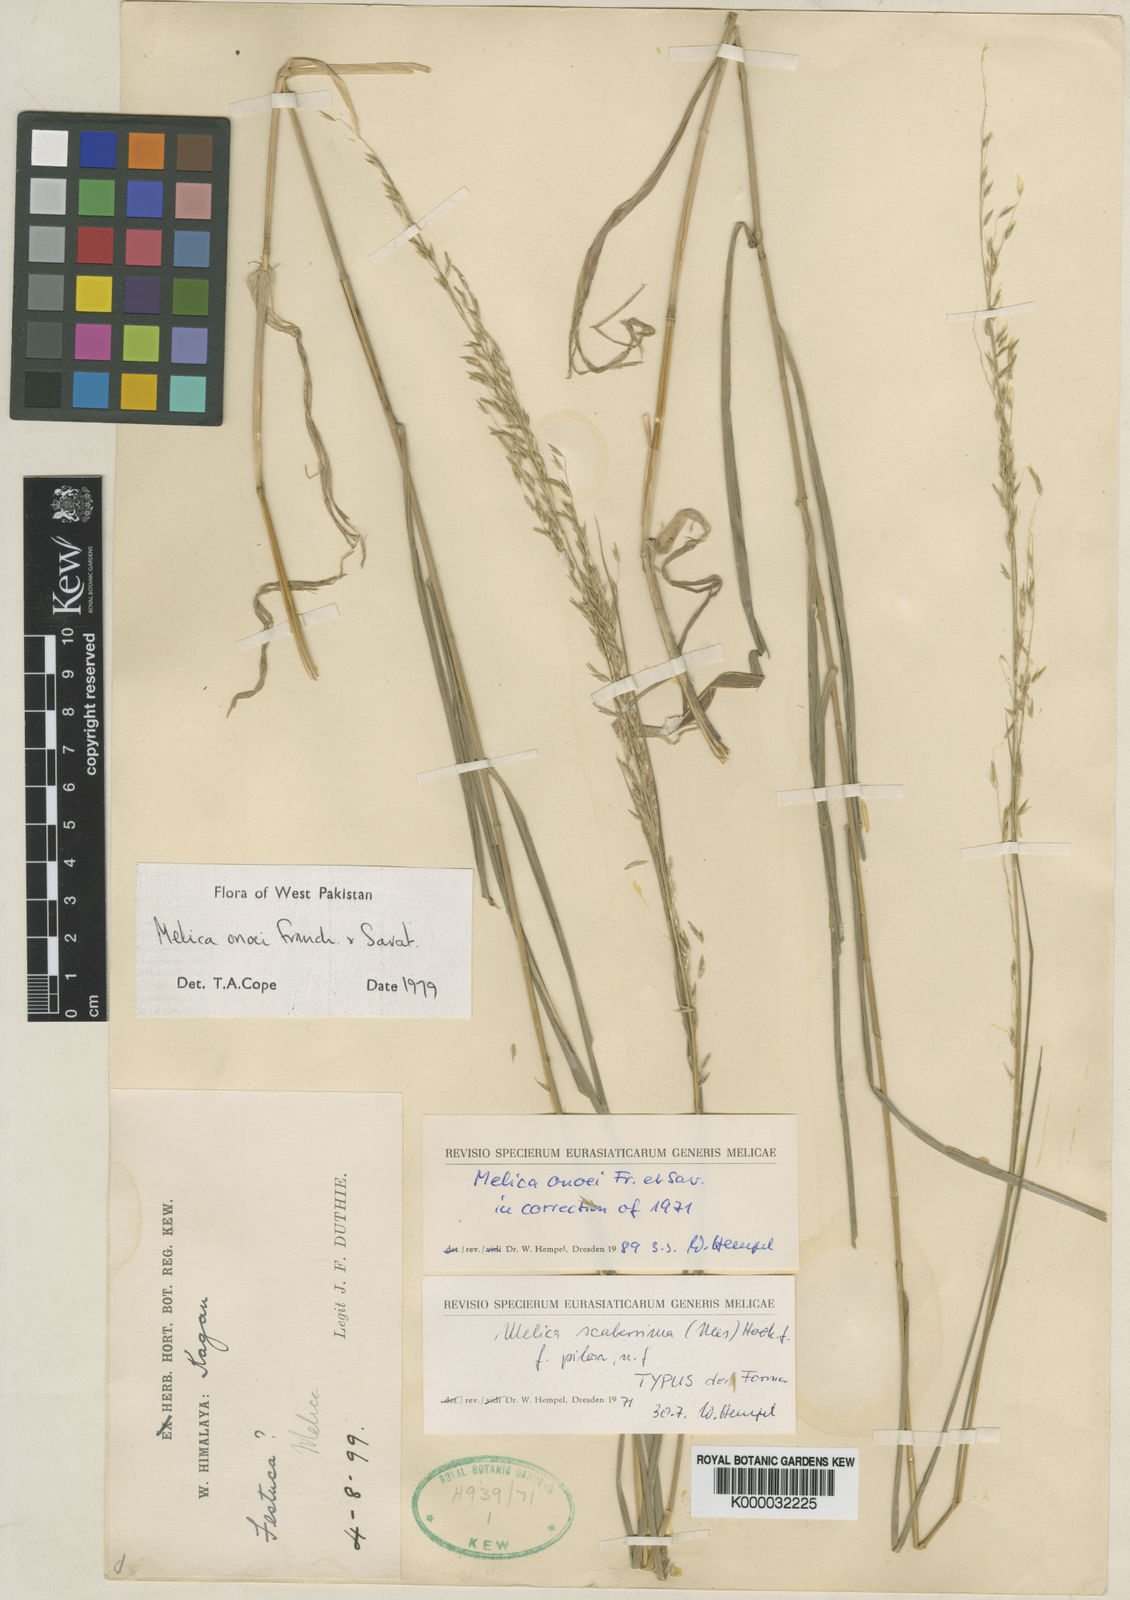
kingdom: Plantae
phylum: Tracheophyta
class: Liliopsida
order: Poales
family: Poaceae
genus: Melica
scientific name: Melica onoei
